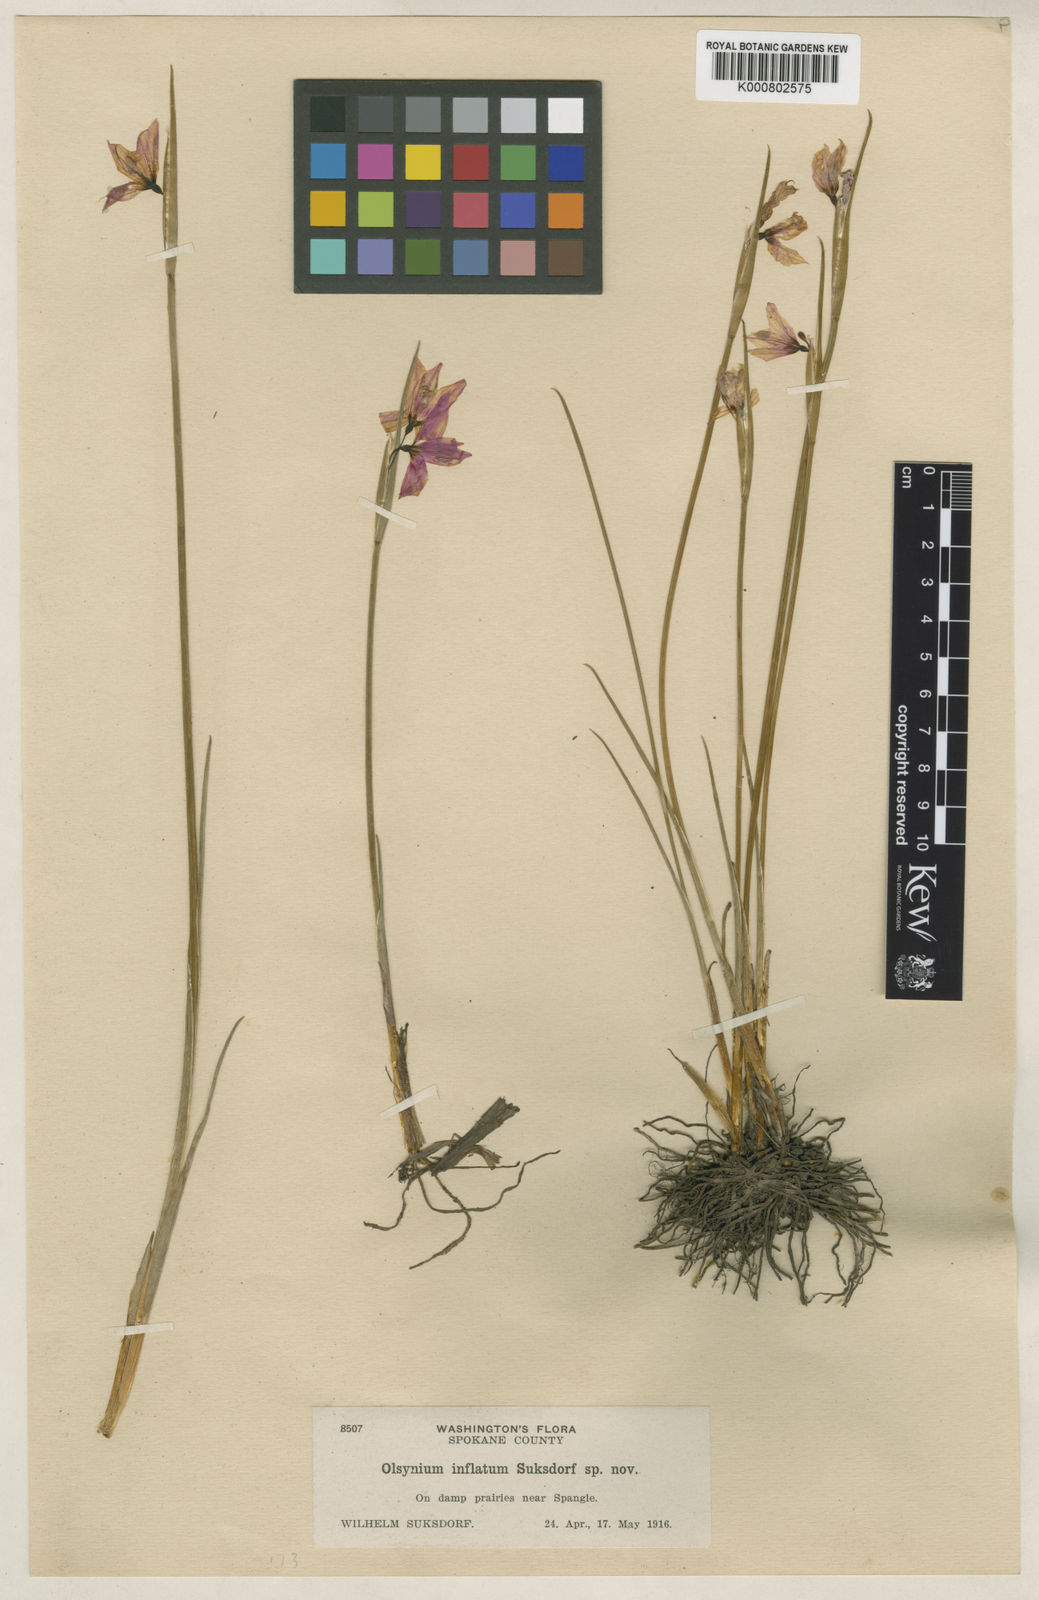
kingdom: Plantae
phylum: Tracheophyta
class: Liliopsida
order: Asparagales
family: Iridaceae
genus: Olsynium
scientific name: Olsynium douglasii
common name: Douglas' grasswidow
